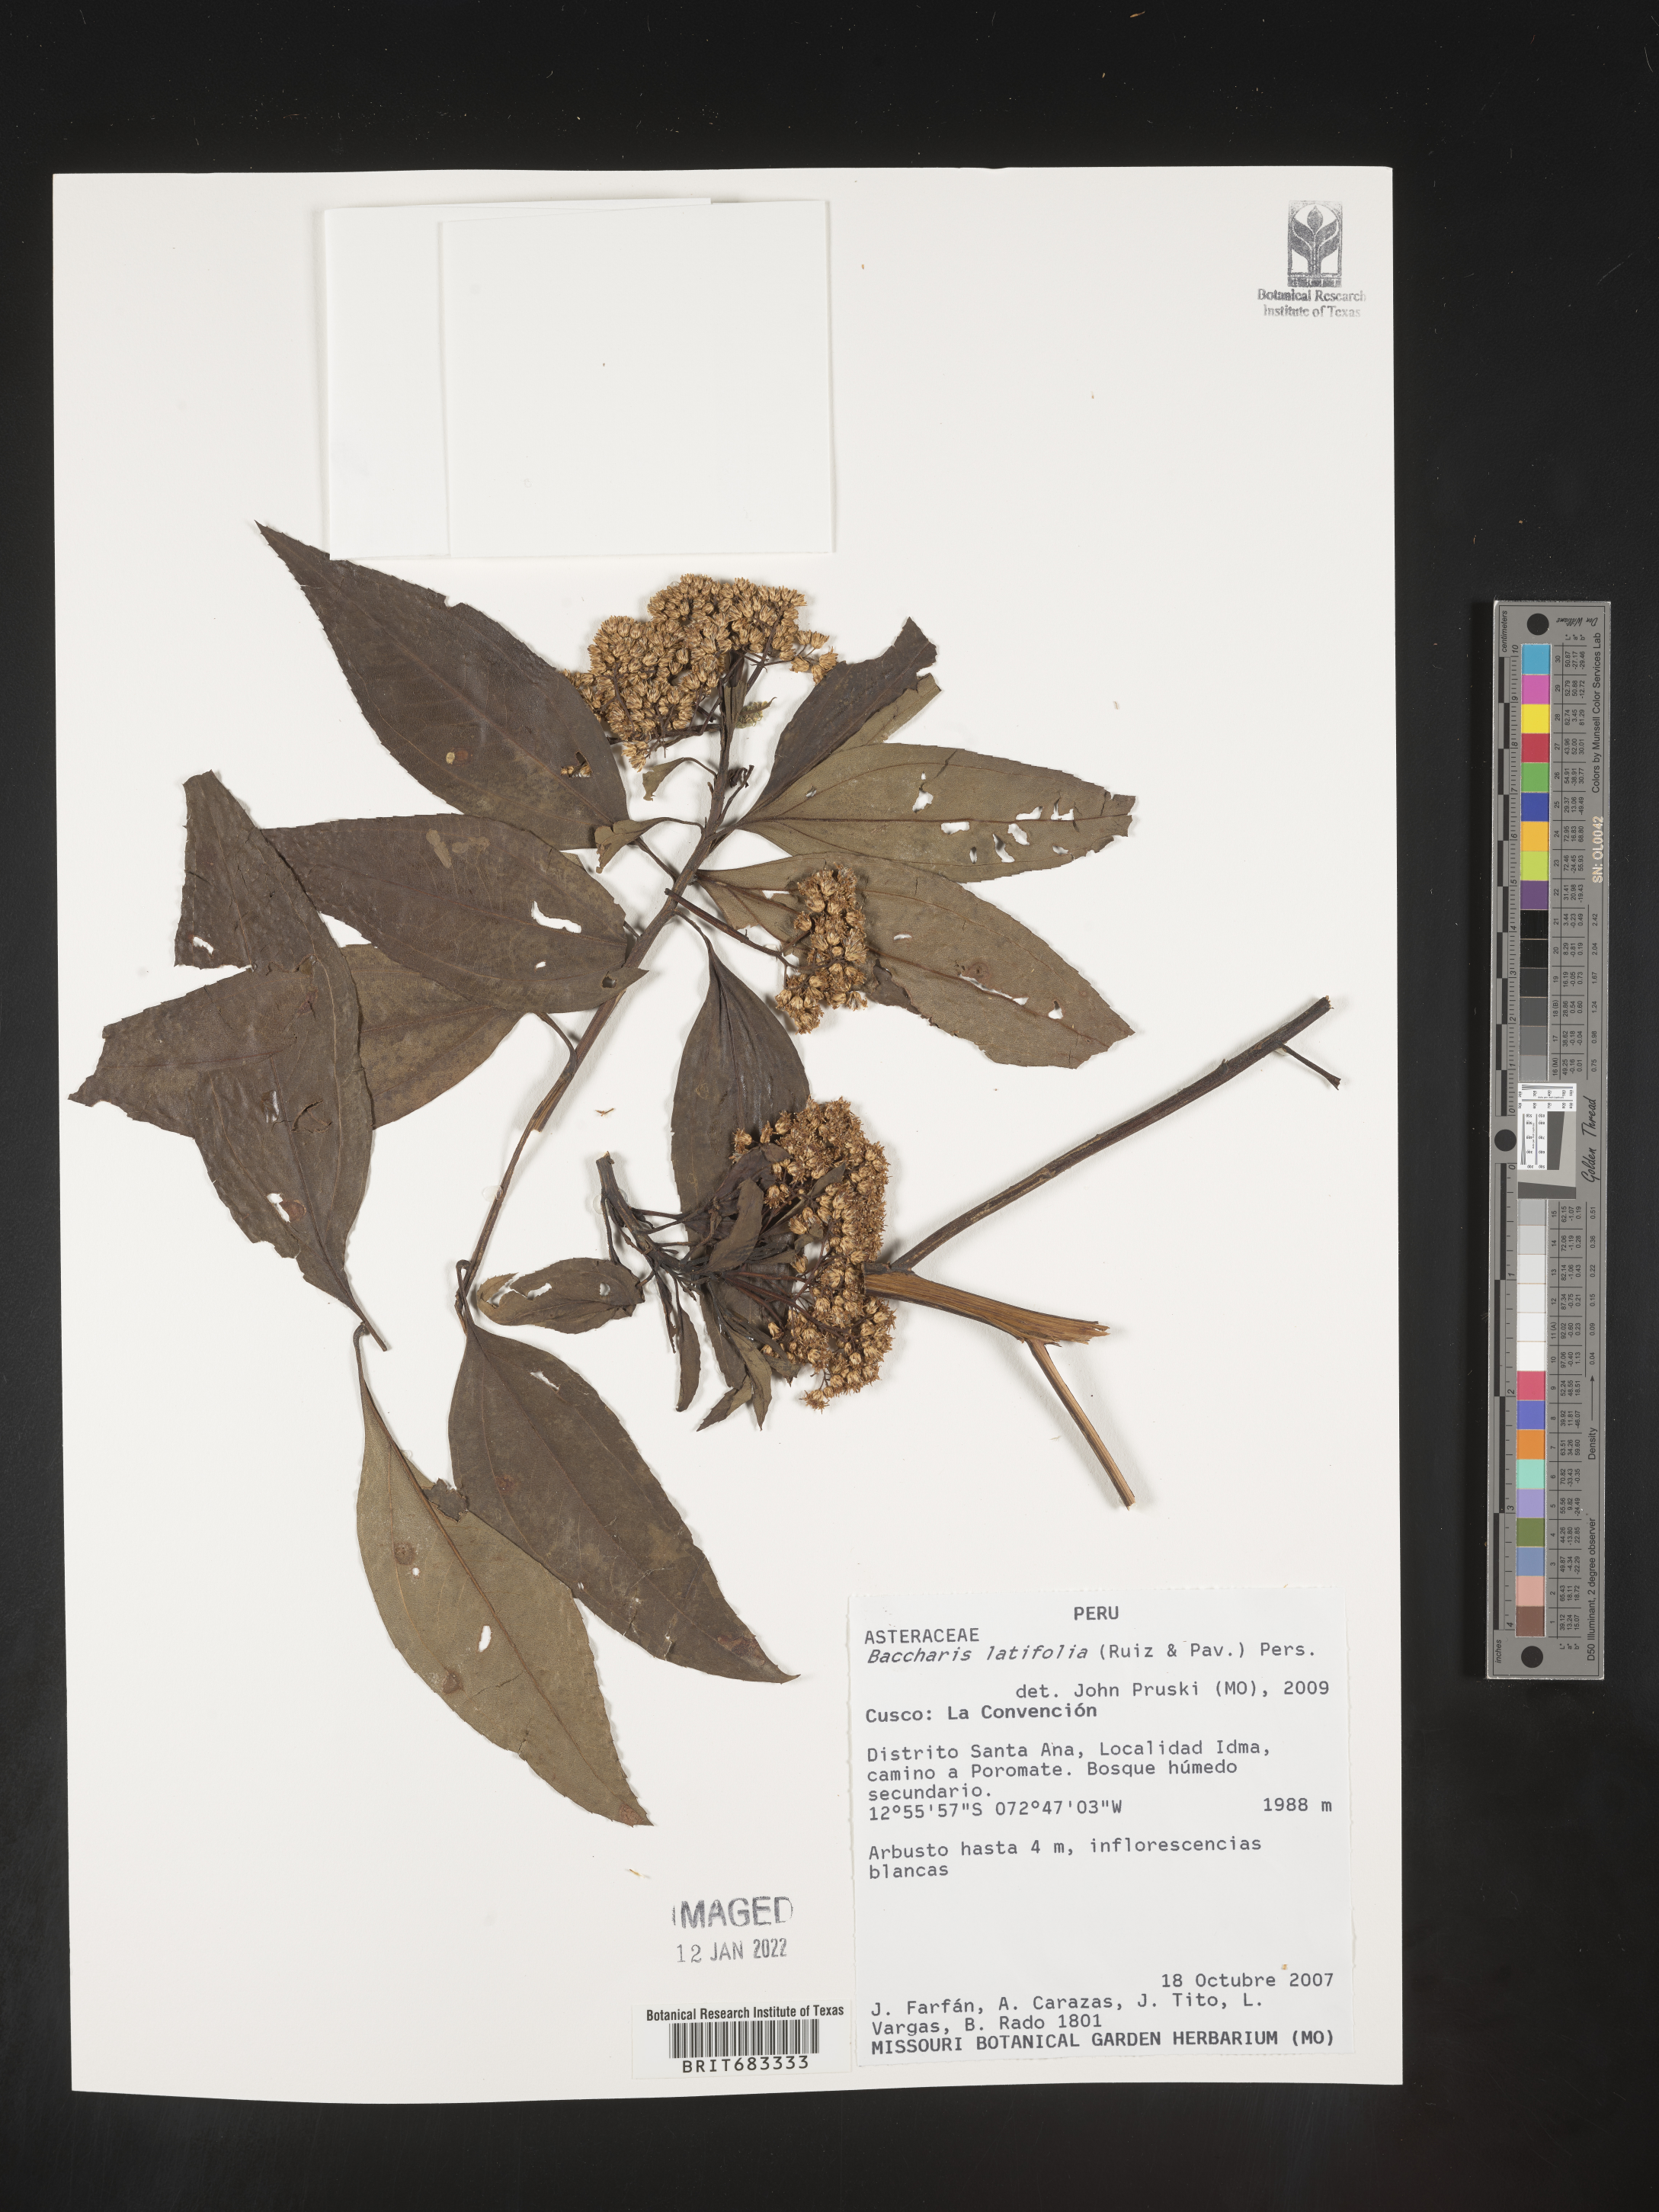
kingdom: Plantae
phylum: Tracheophyta
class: Magnoliopsida
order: Asterales
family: Asteraceae
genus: Baccharis
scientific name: Baccharis
